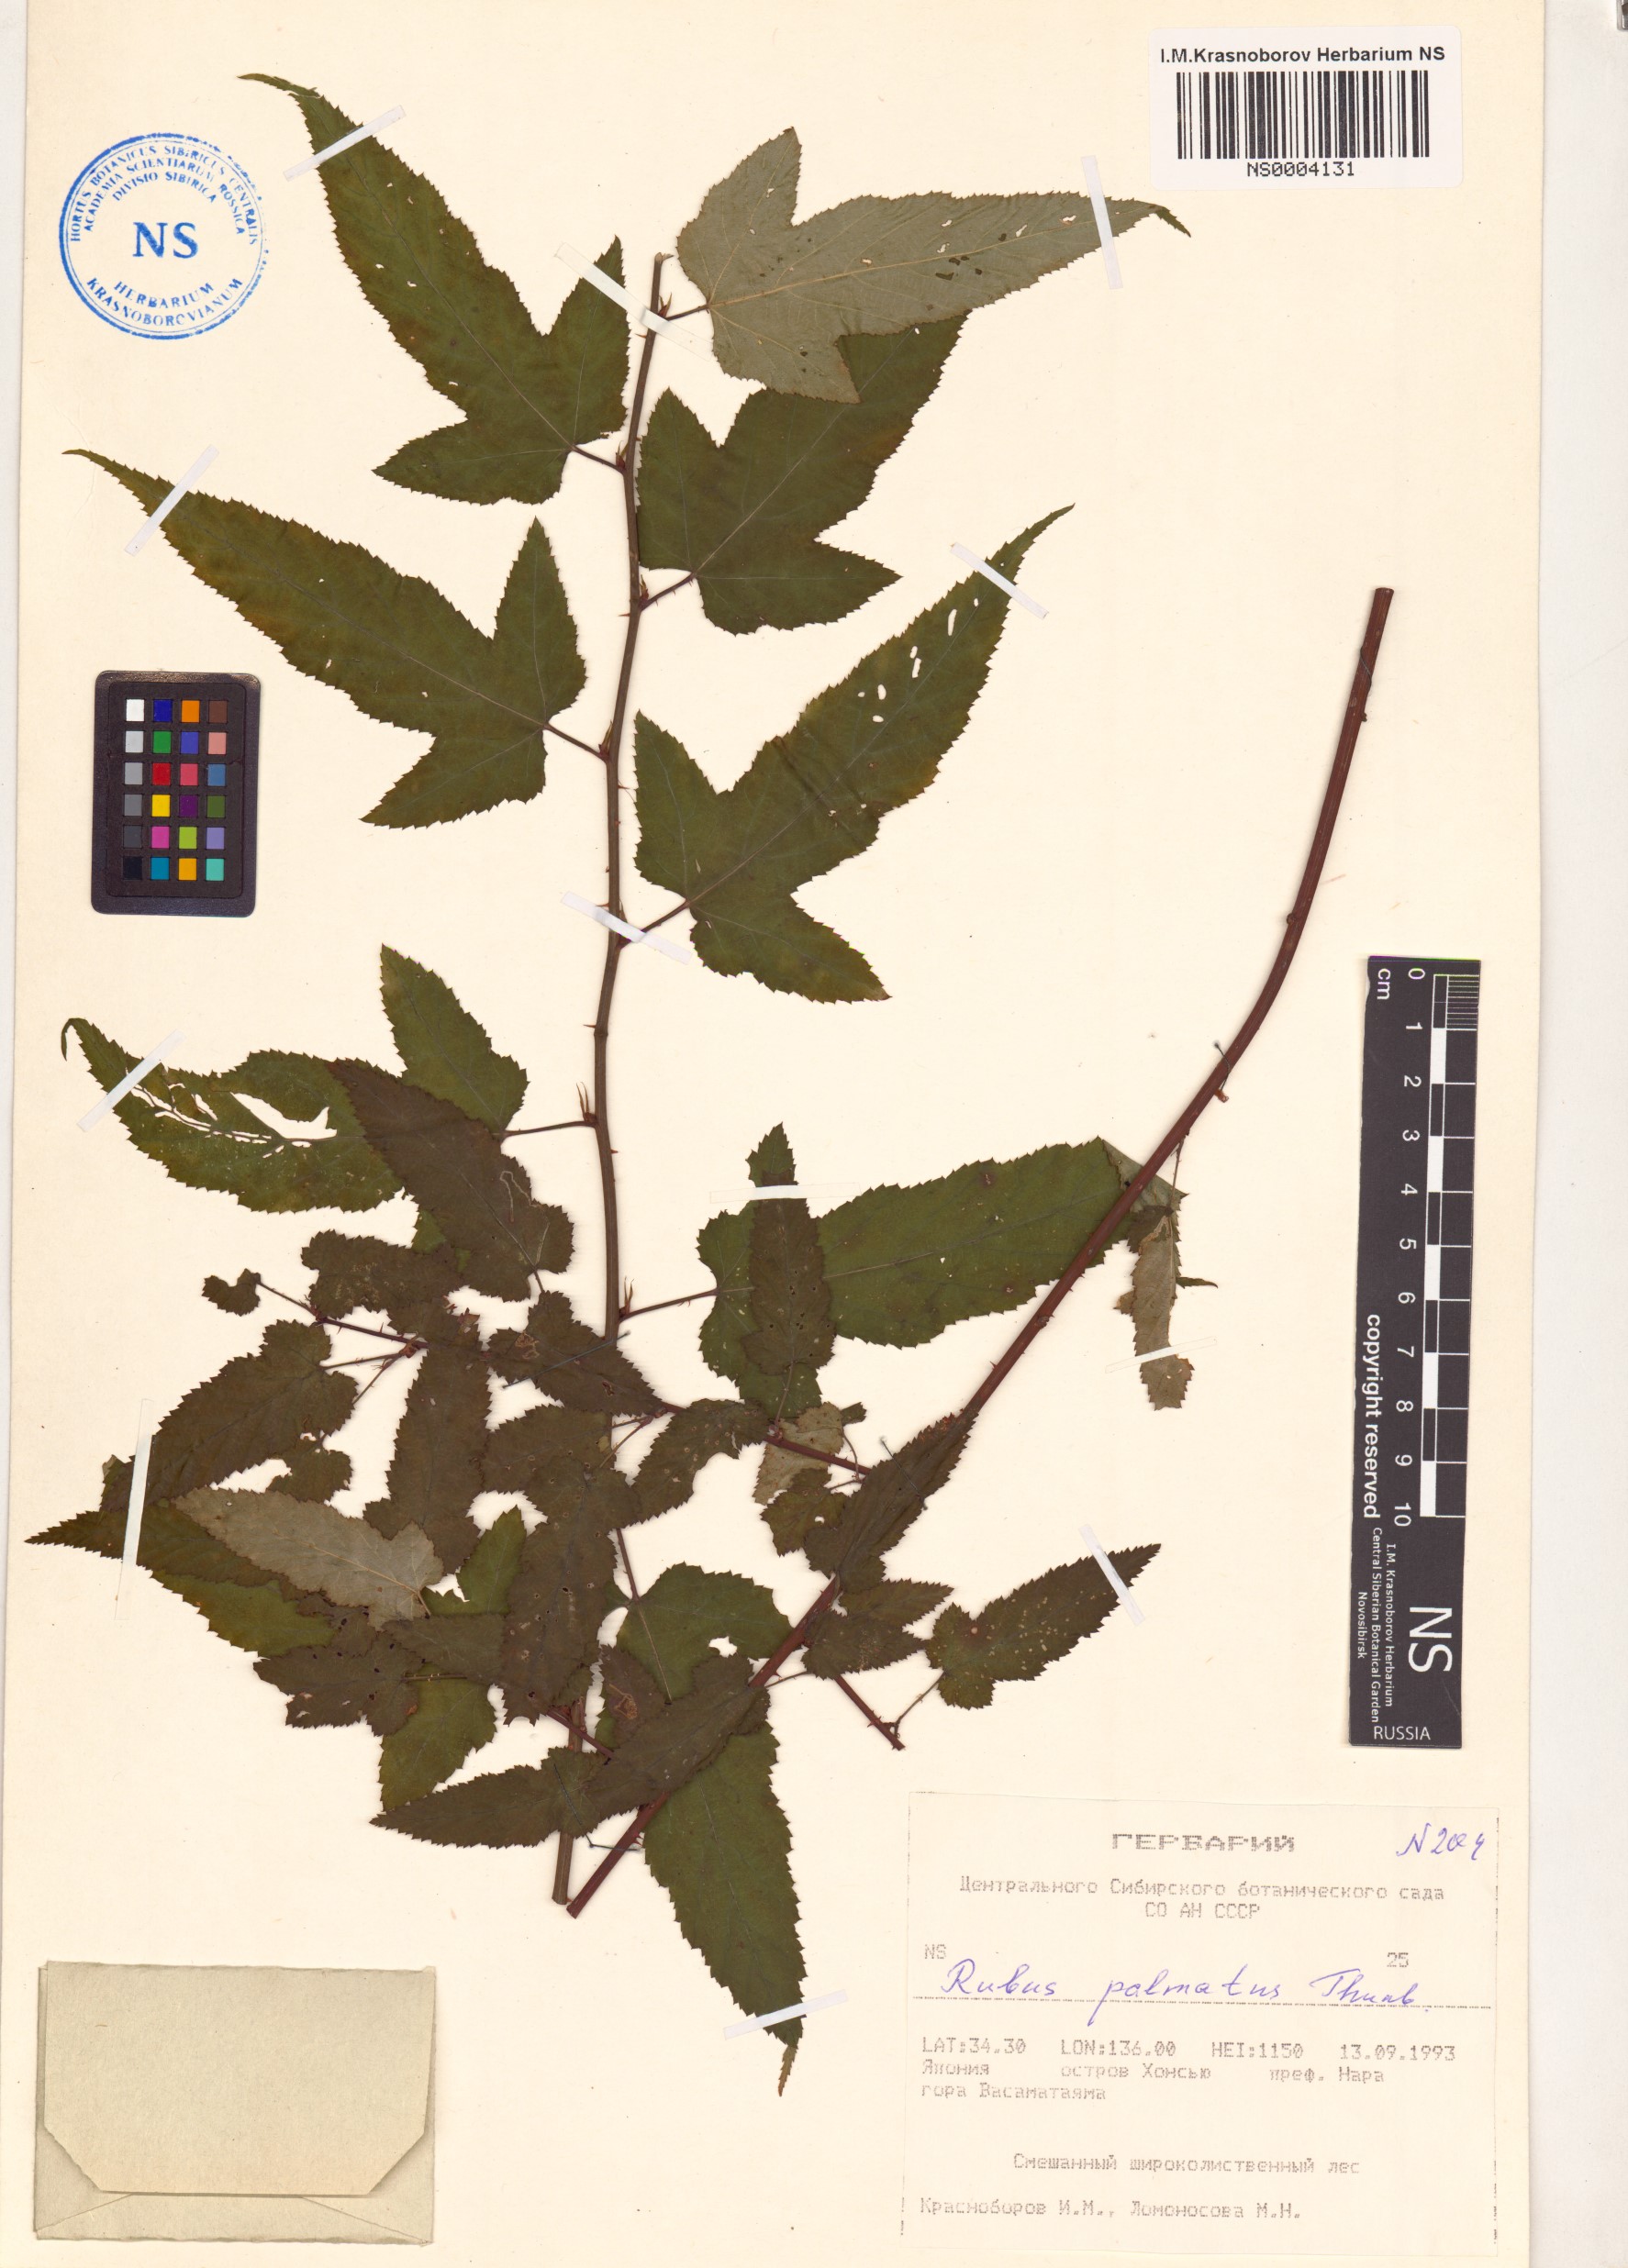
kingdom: Plantae
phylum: Tracheophyta
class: Magnoliopsida
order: Rosales
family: Rosaceae
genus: Rubus
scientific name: Rubus palmatus
